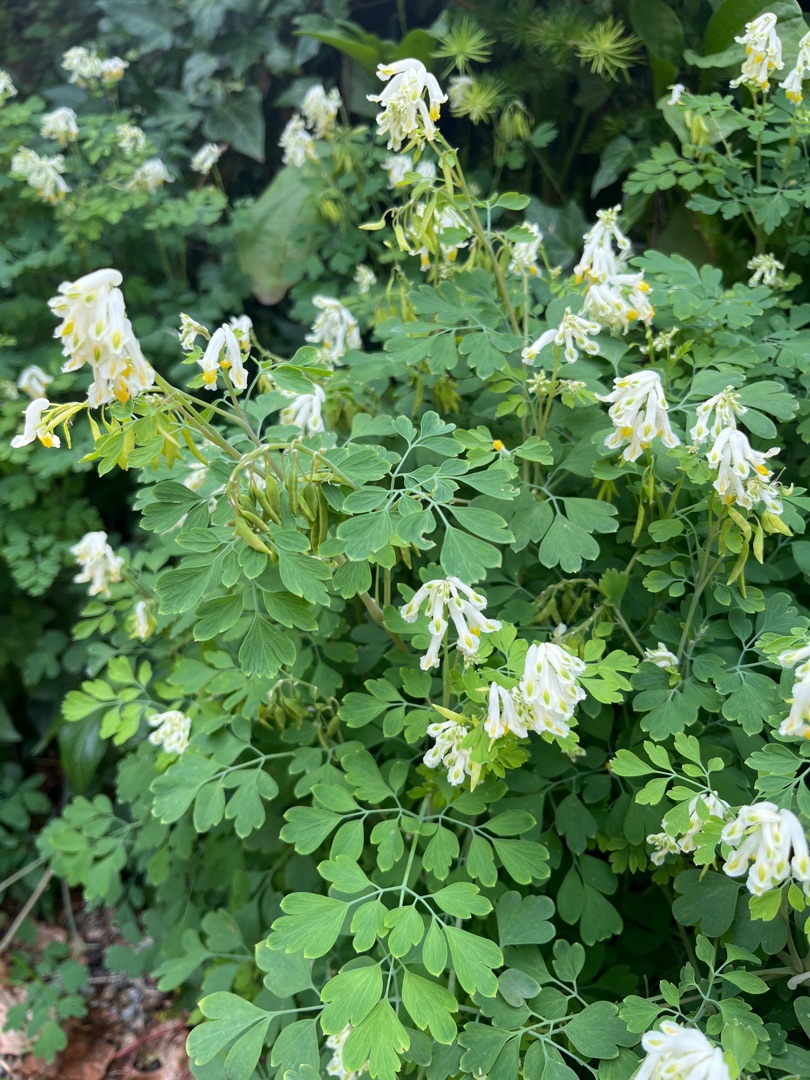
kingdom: Plantae
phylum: Tracheophyta
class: Magnoliopsida
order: Ranunculales
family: Papaveraceae
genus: Pseudofumaria
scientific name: Pseudofumaria alba
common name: Hvidgul lærkespore
